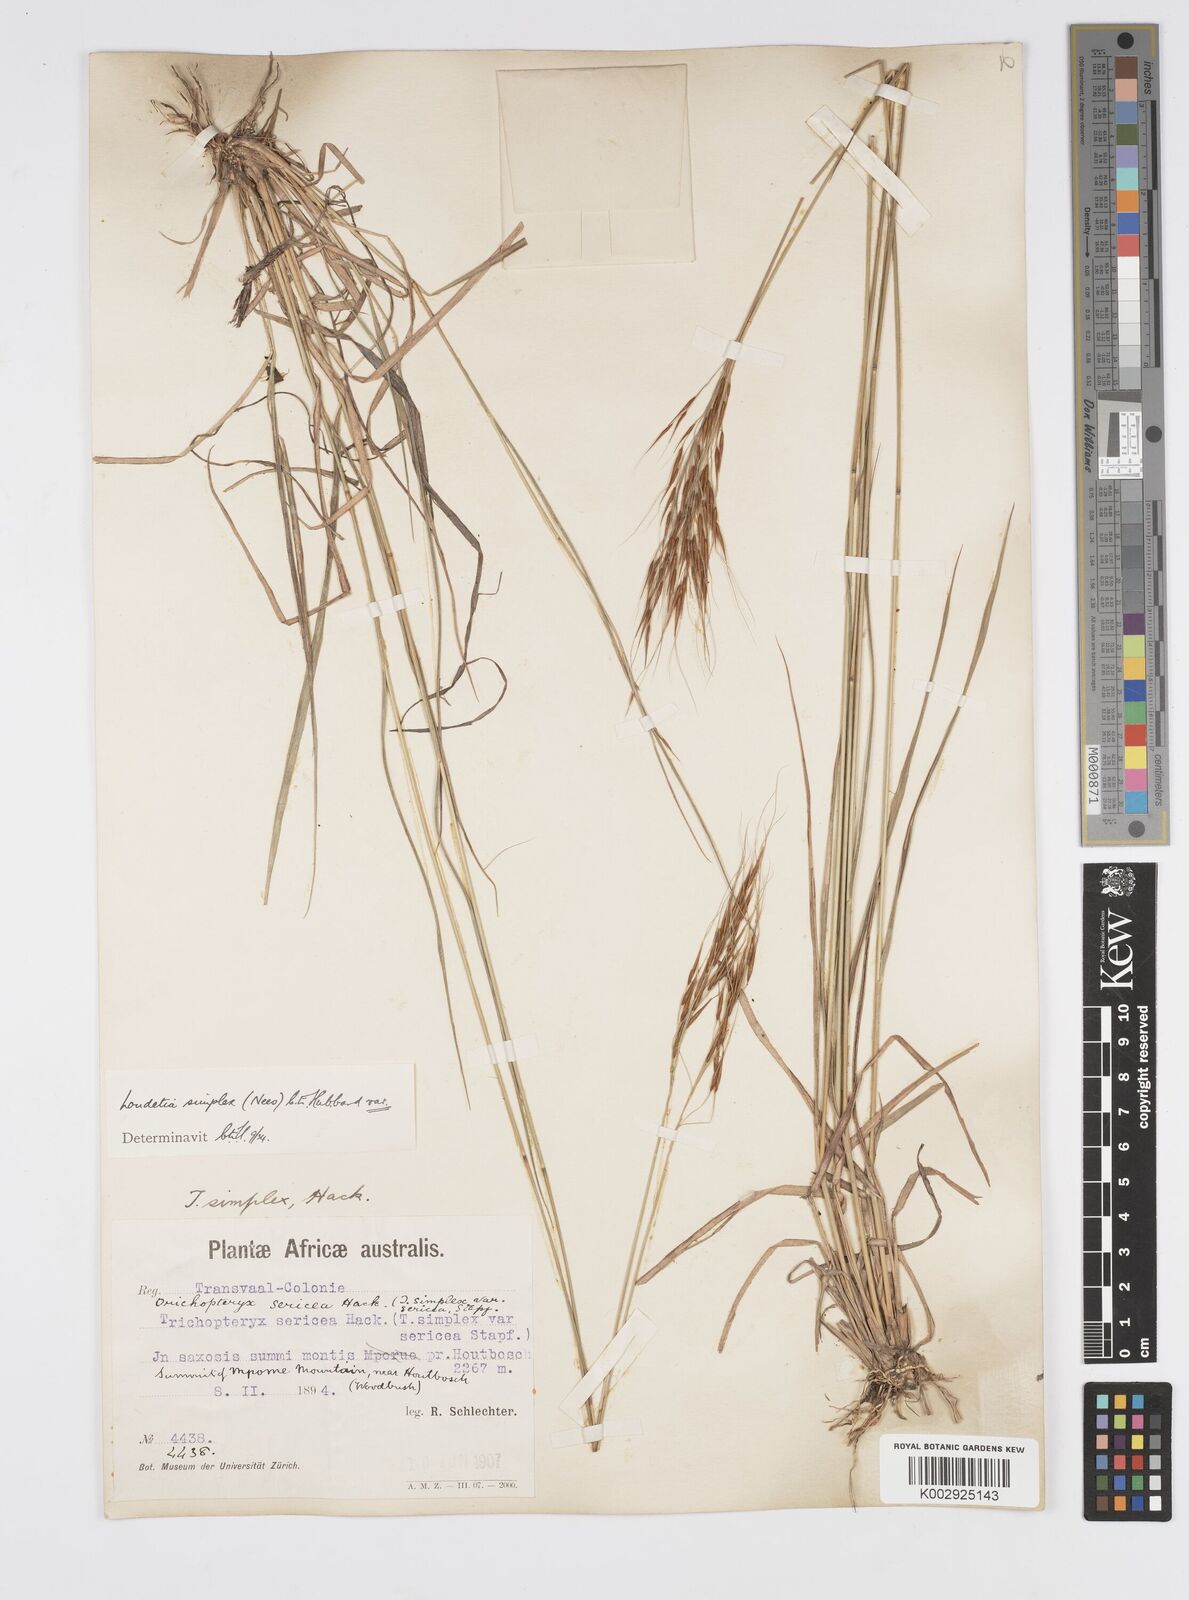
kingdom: Plantae
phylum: Tracheophyta
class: Liliopsida
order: Poales
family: Poaceae
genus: Loudetia
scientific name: Loudetia simplex
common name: Common russet grass
